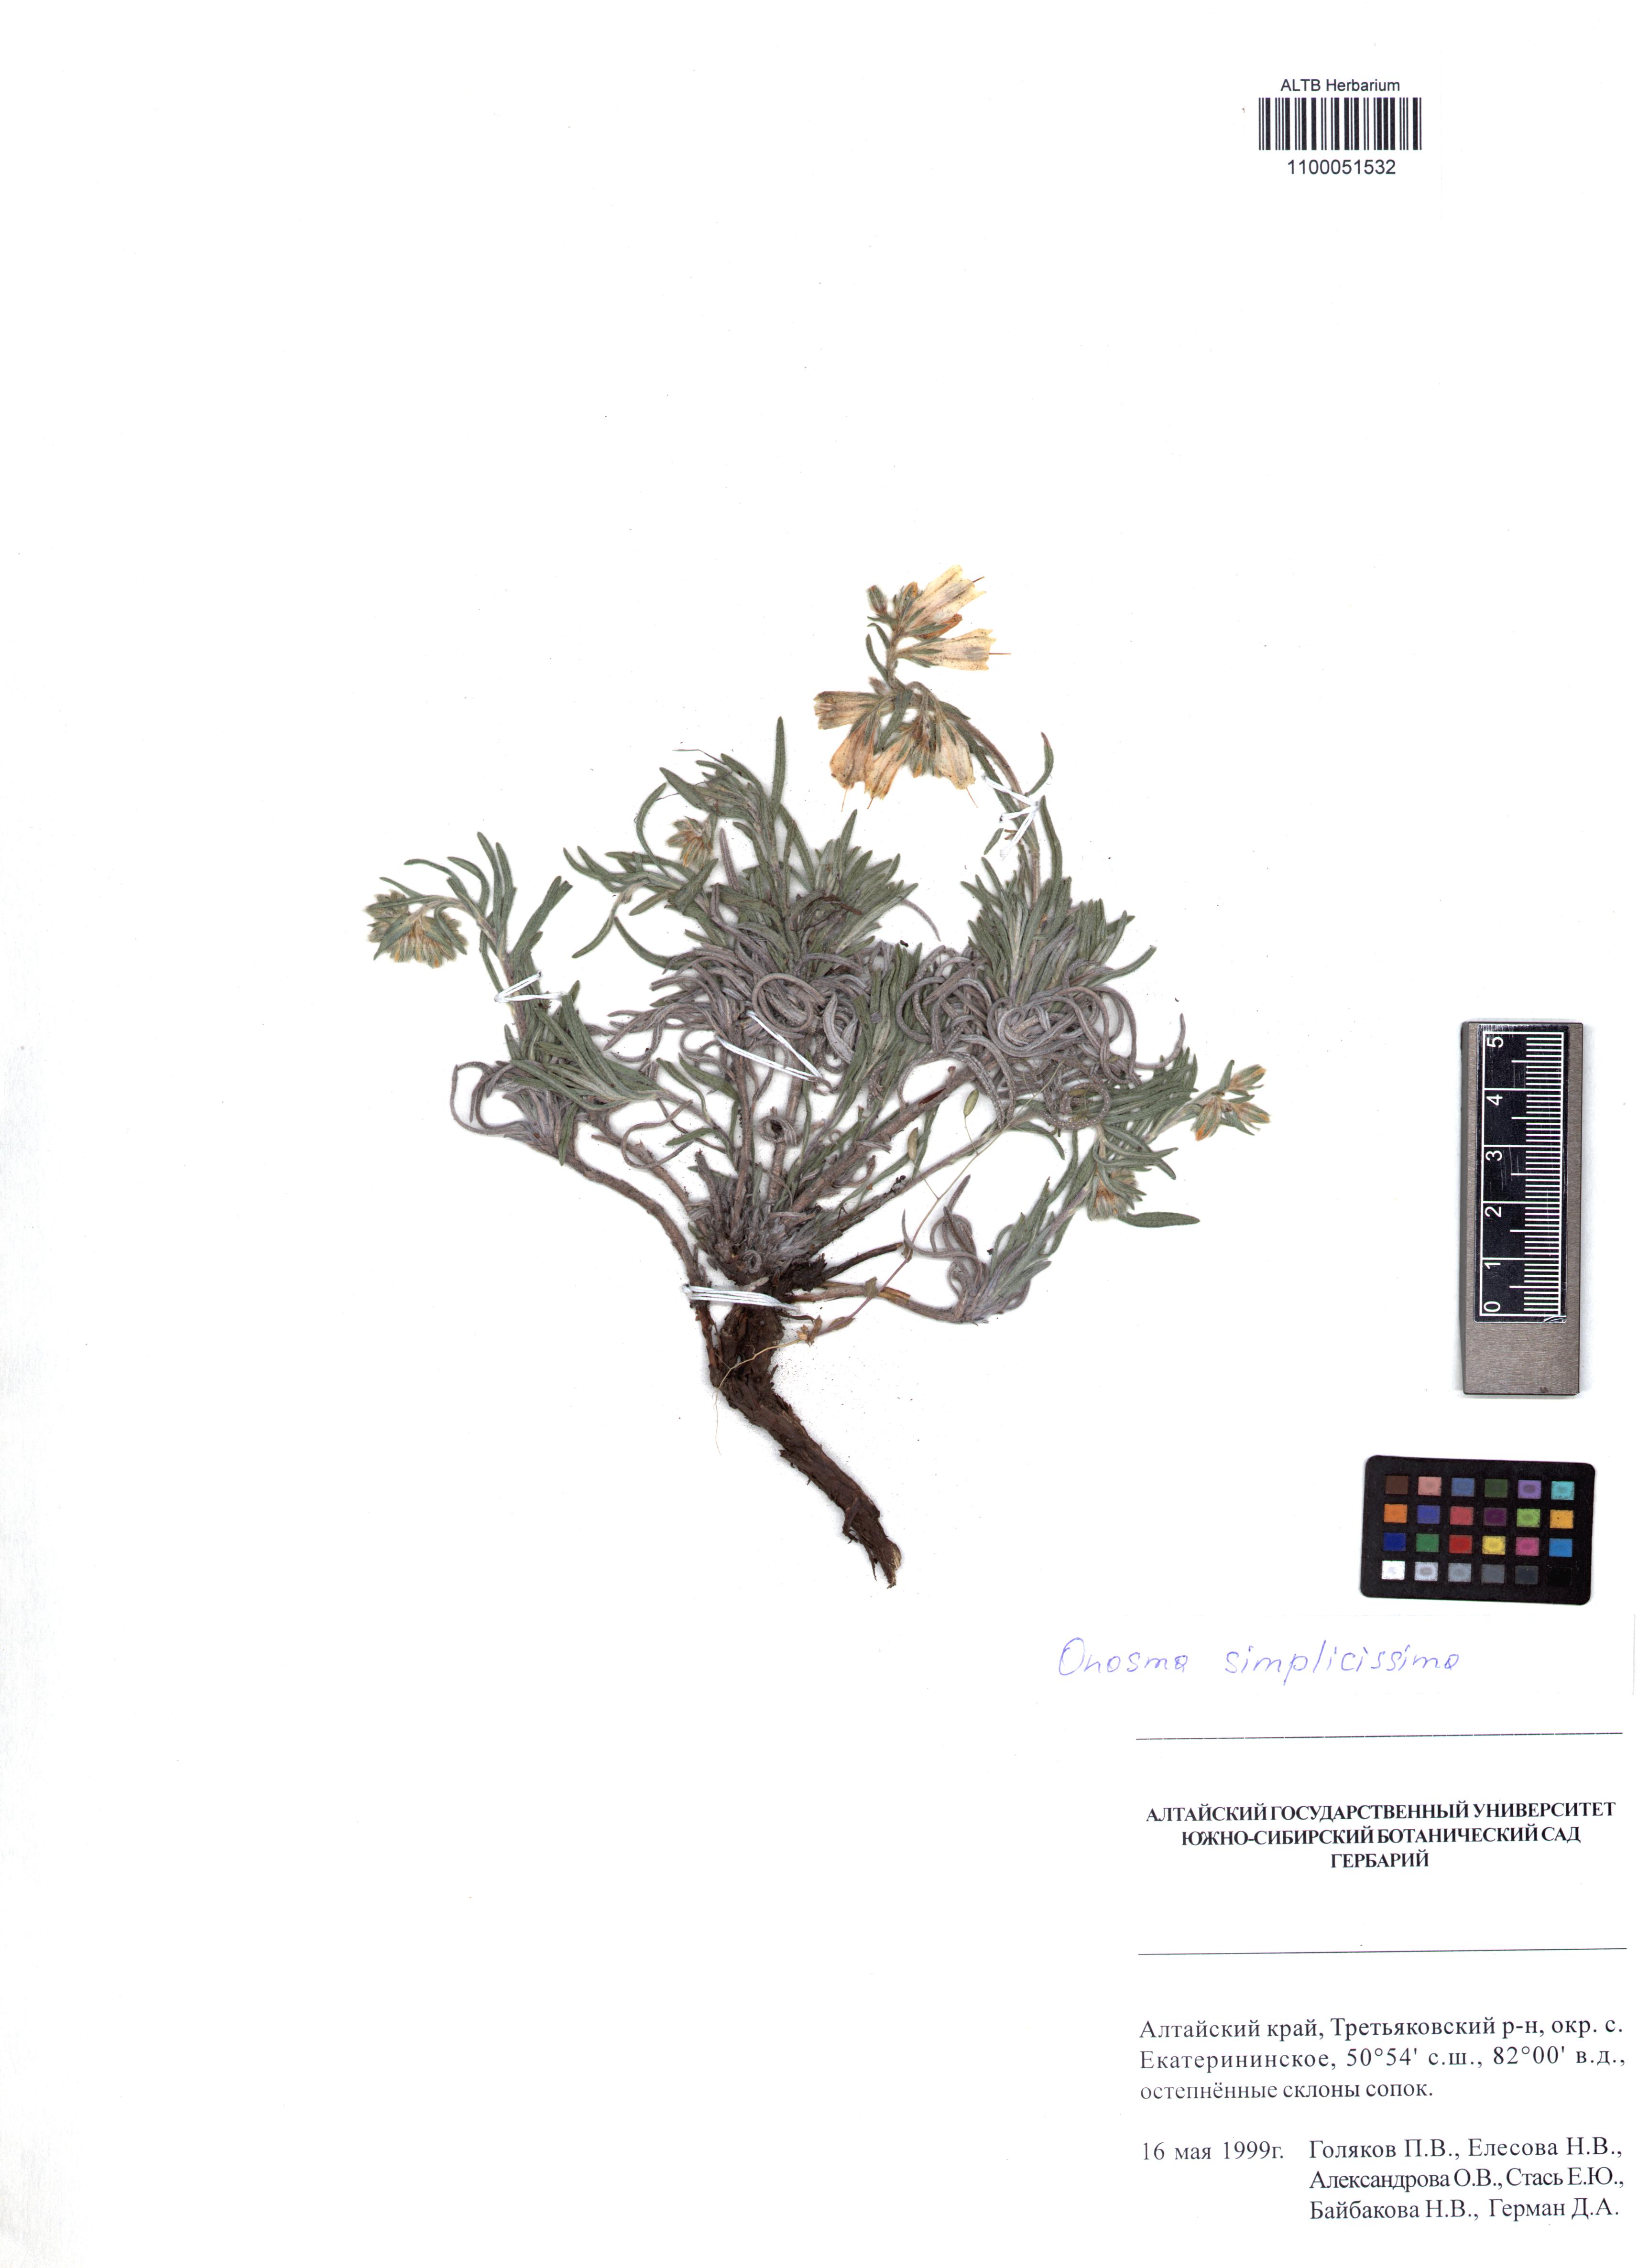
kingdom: Plantae
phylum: Tracheophyta
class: Magnoliopsida
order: Boraginales
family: Boraginaceae
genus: Onosma
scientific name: Onosma simplicissima
